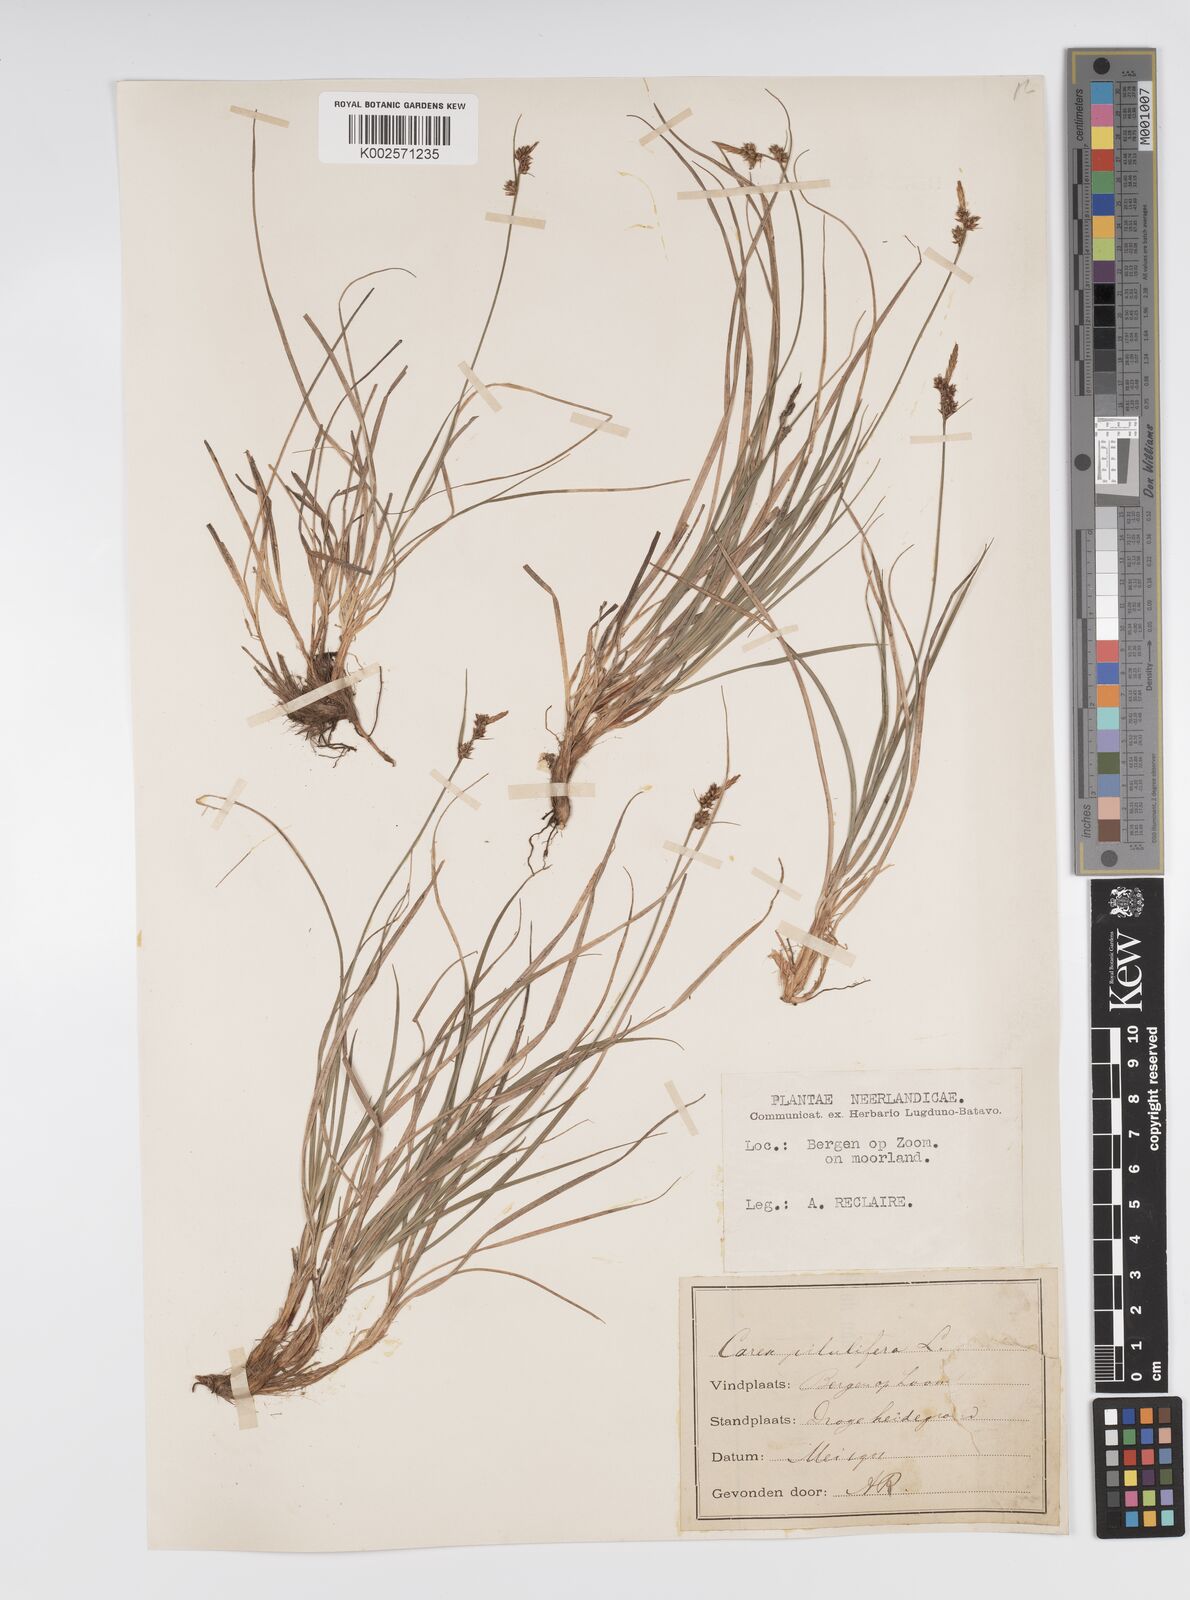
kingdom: Plantae
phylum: Tracheophyta
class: Liliopsida
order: Poales
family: Cyperaceae
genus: Carex
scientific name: Carex pilulifera
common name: Pill sedge
